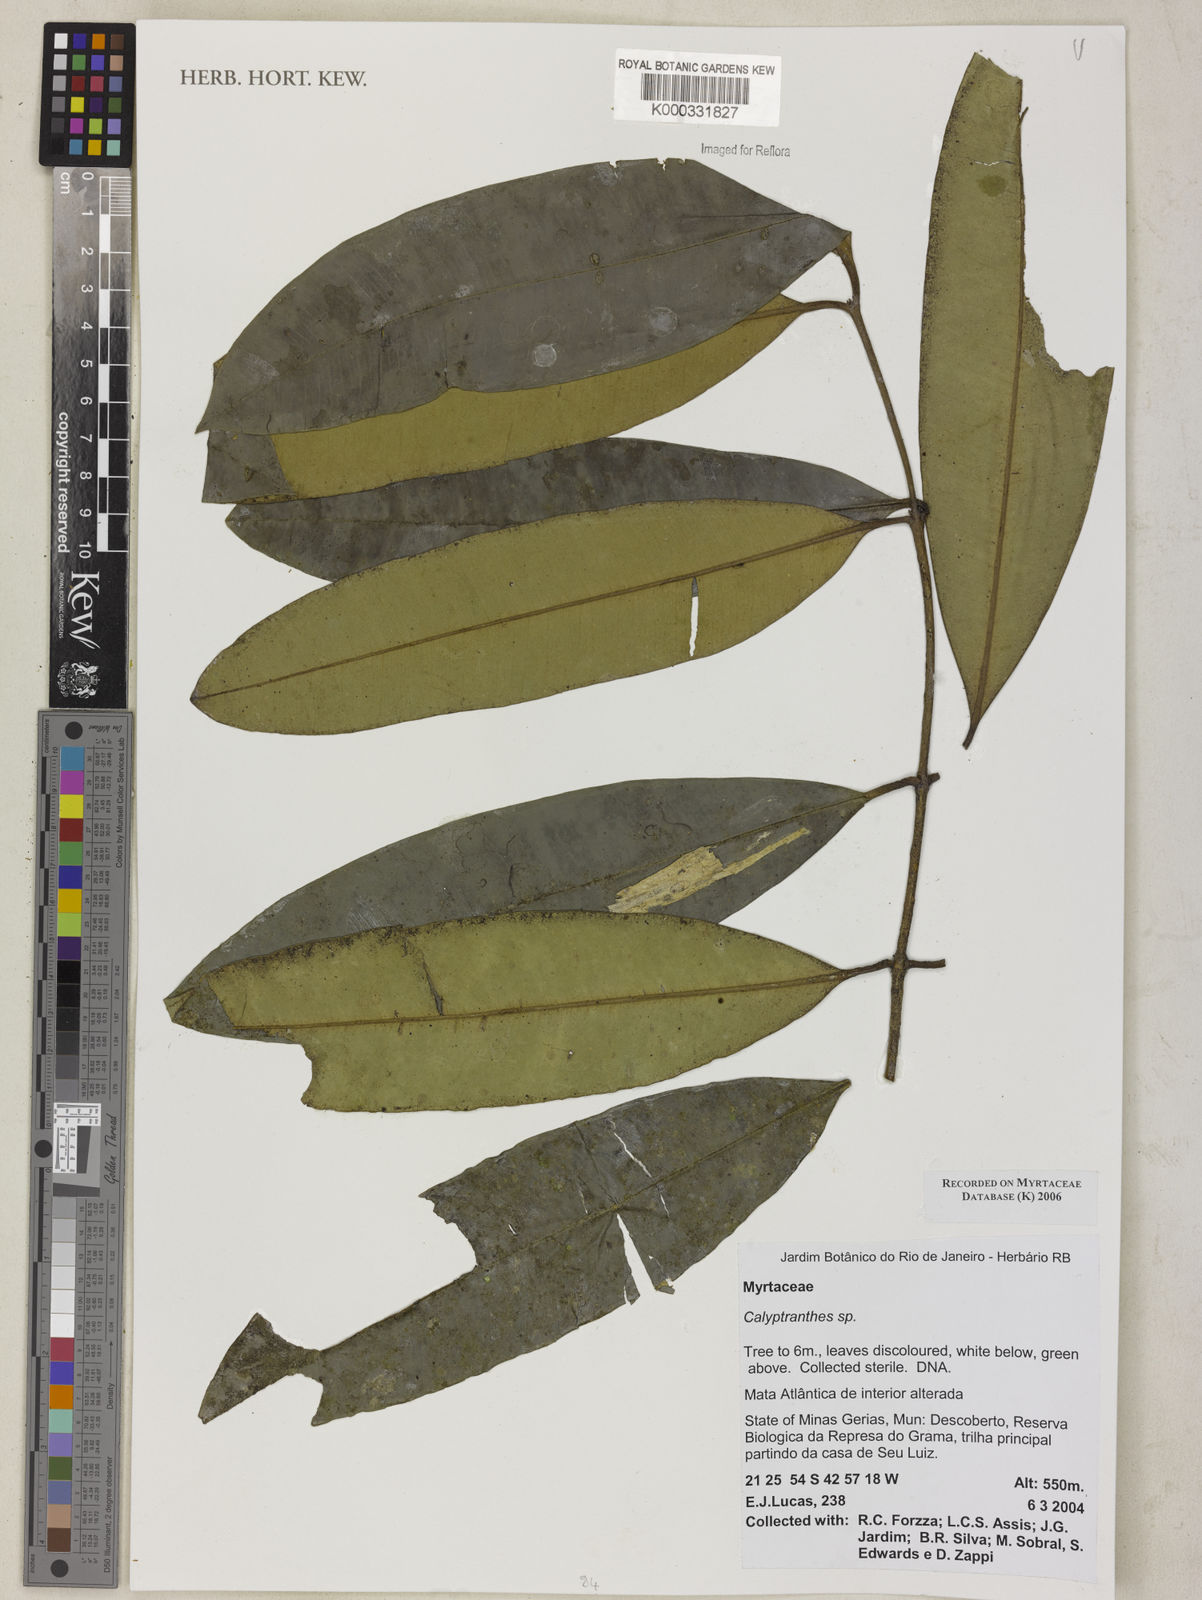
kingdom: Plantae
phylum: Tracheophyta
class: Magnoliopsida
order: Myrtales
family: Myrtaceae
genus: Calyptranthes
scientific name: Calyptranthes
